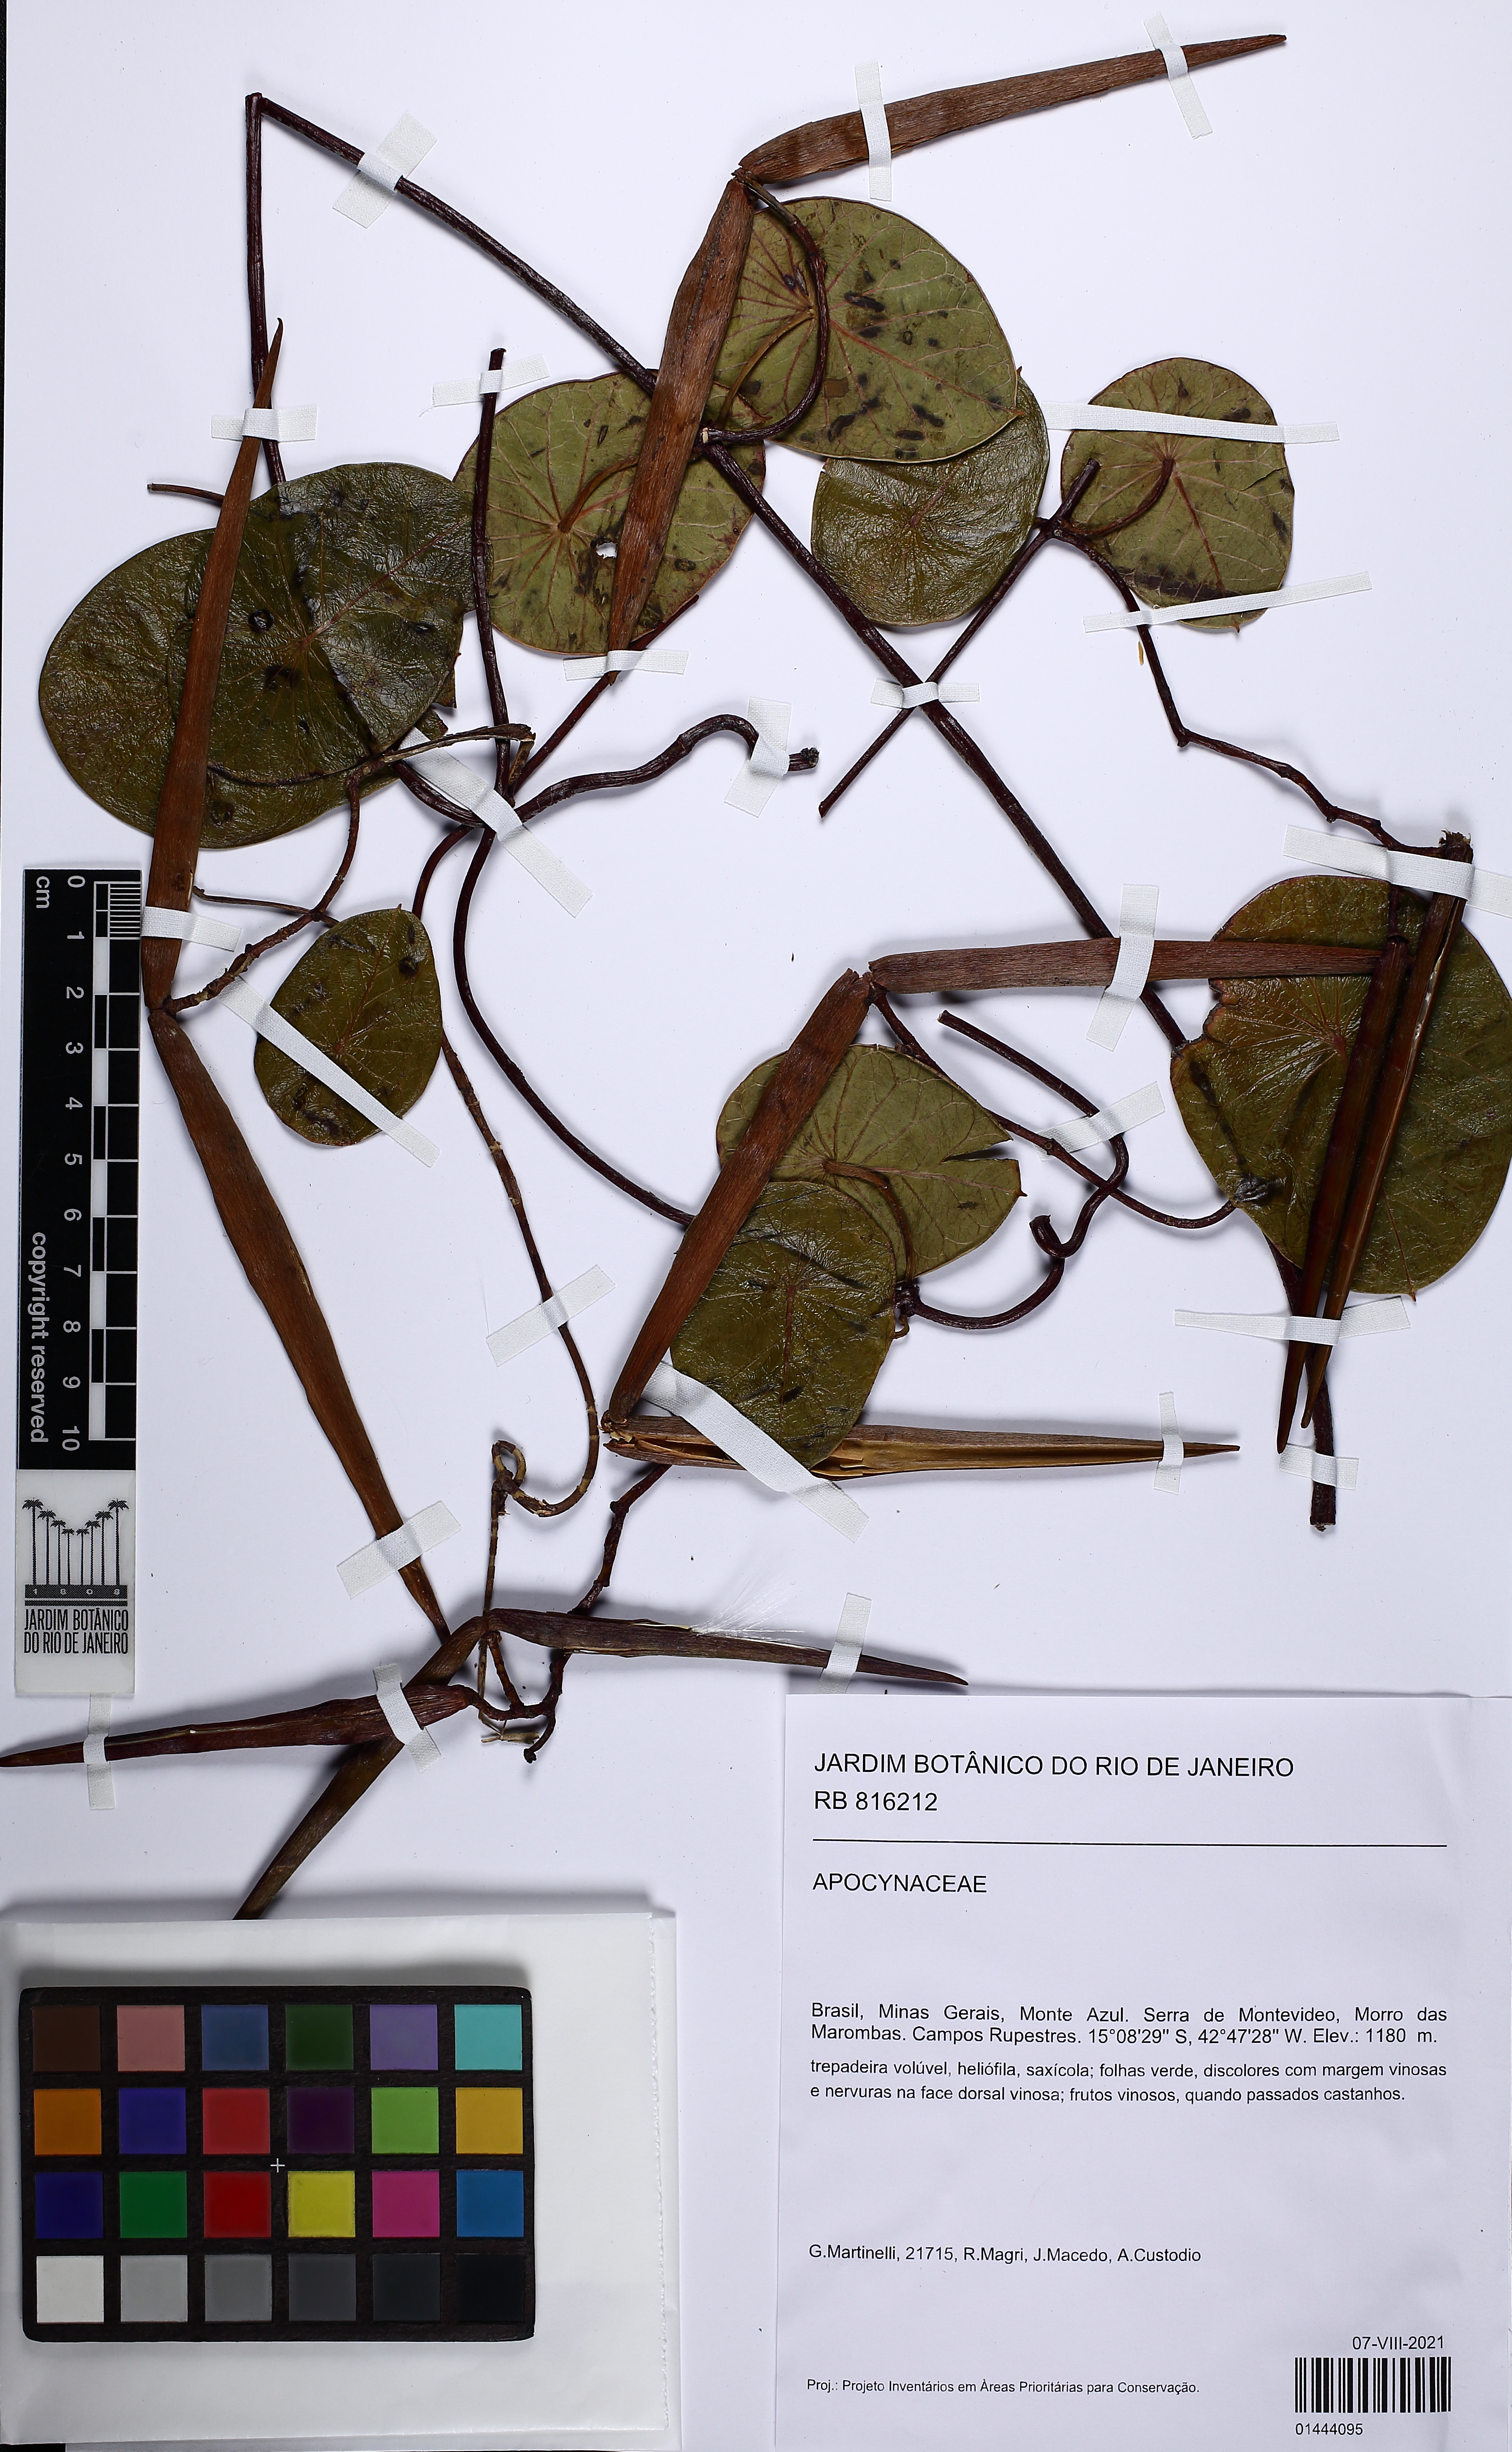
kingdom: Plantae
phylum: Tracheophyta
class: Magnoliopsida
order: Gentianales
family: Apocynaceae
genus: Stipecoma
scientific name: Stipecoma peltigera
